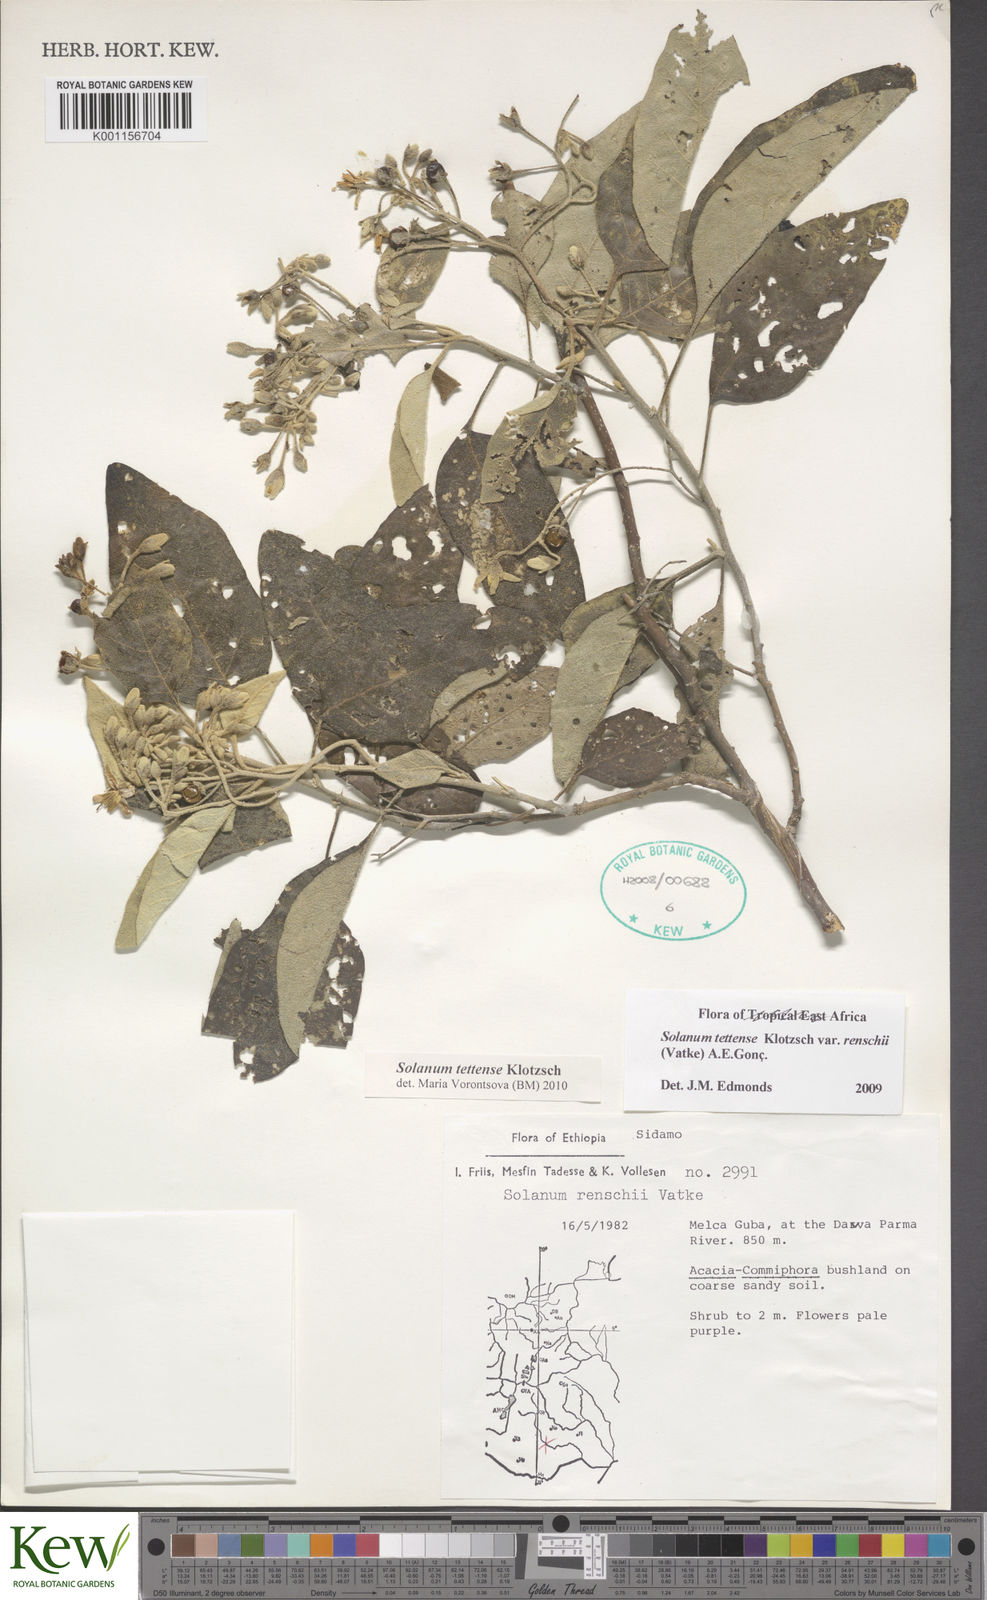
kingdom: Plantae
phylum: Tracheophyta
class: Magnoliopsida
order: Solanales
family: Solanaceae
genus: Solanum
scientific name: Solanum tettense
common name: Mozambique bitter apple
